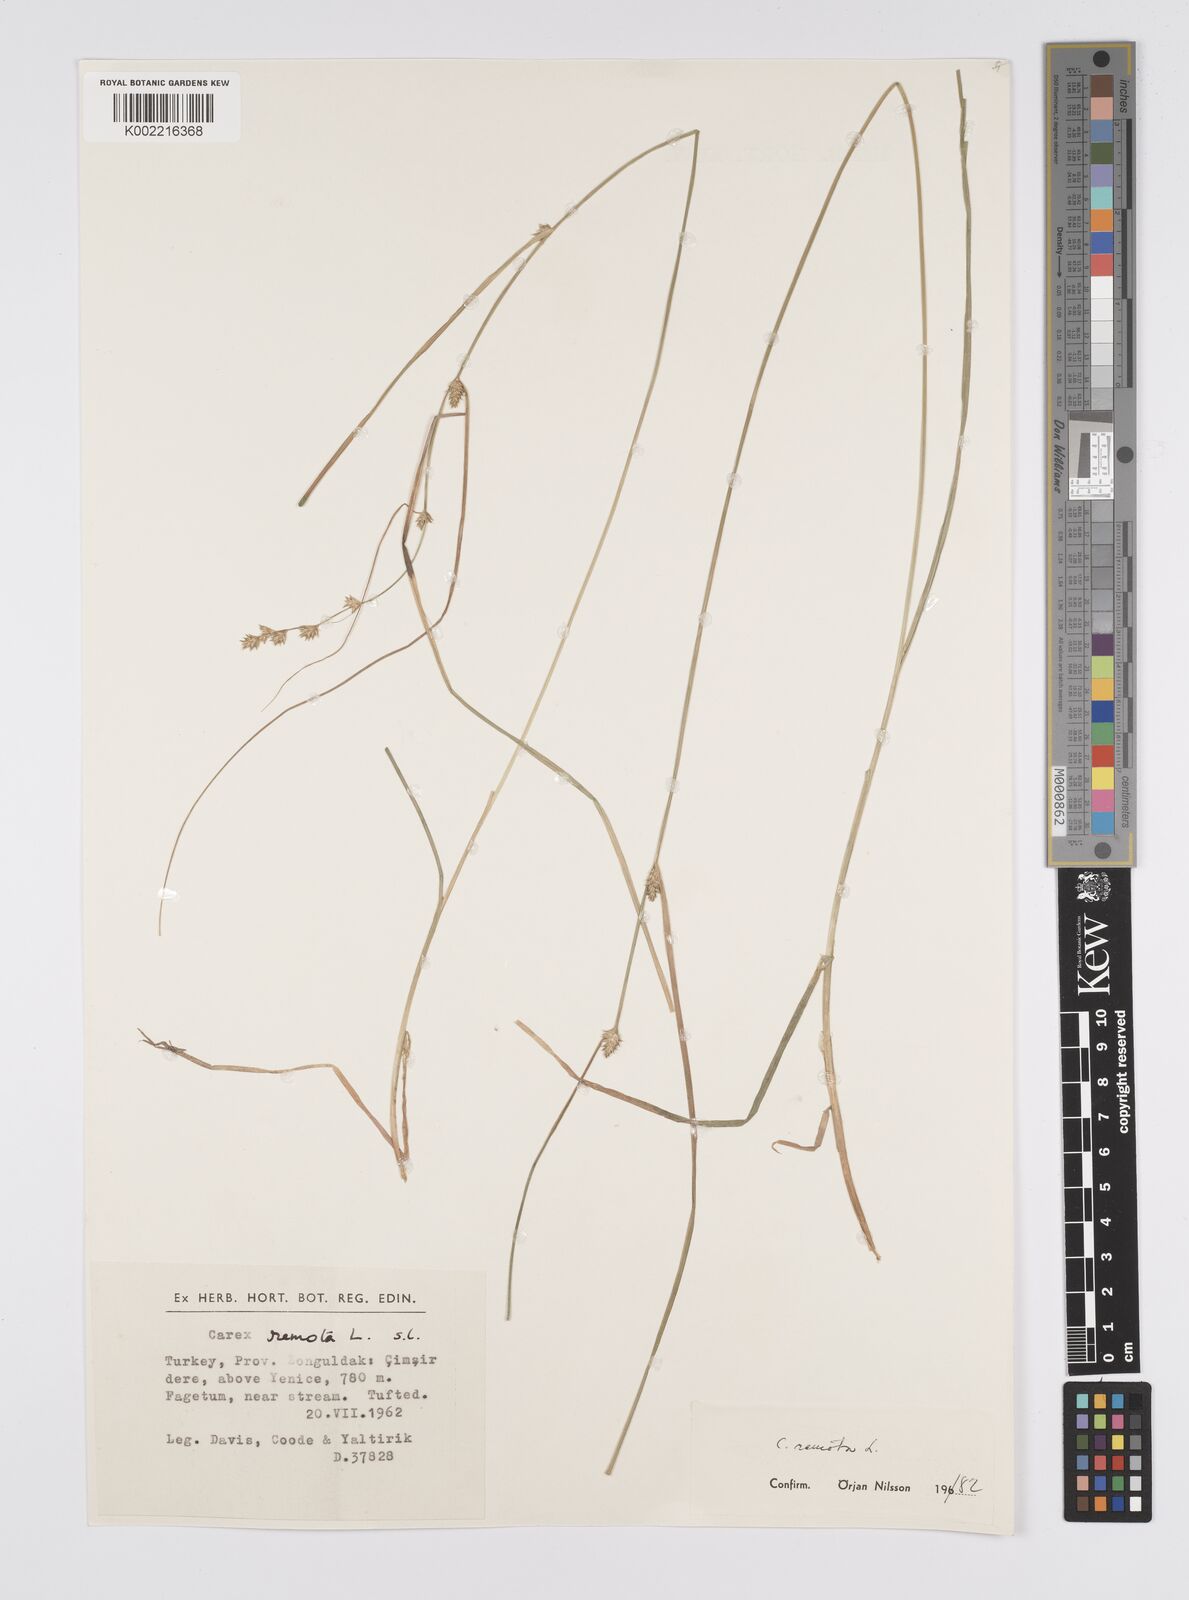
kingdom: Plantae
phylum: Tracheophyta
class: Liliopsida
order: Poales
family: Cyperaceae
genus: Carex
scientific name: Carex remota
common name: Remote sedge
